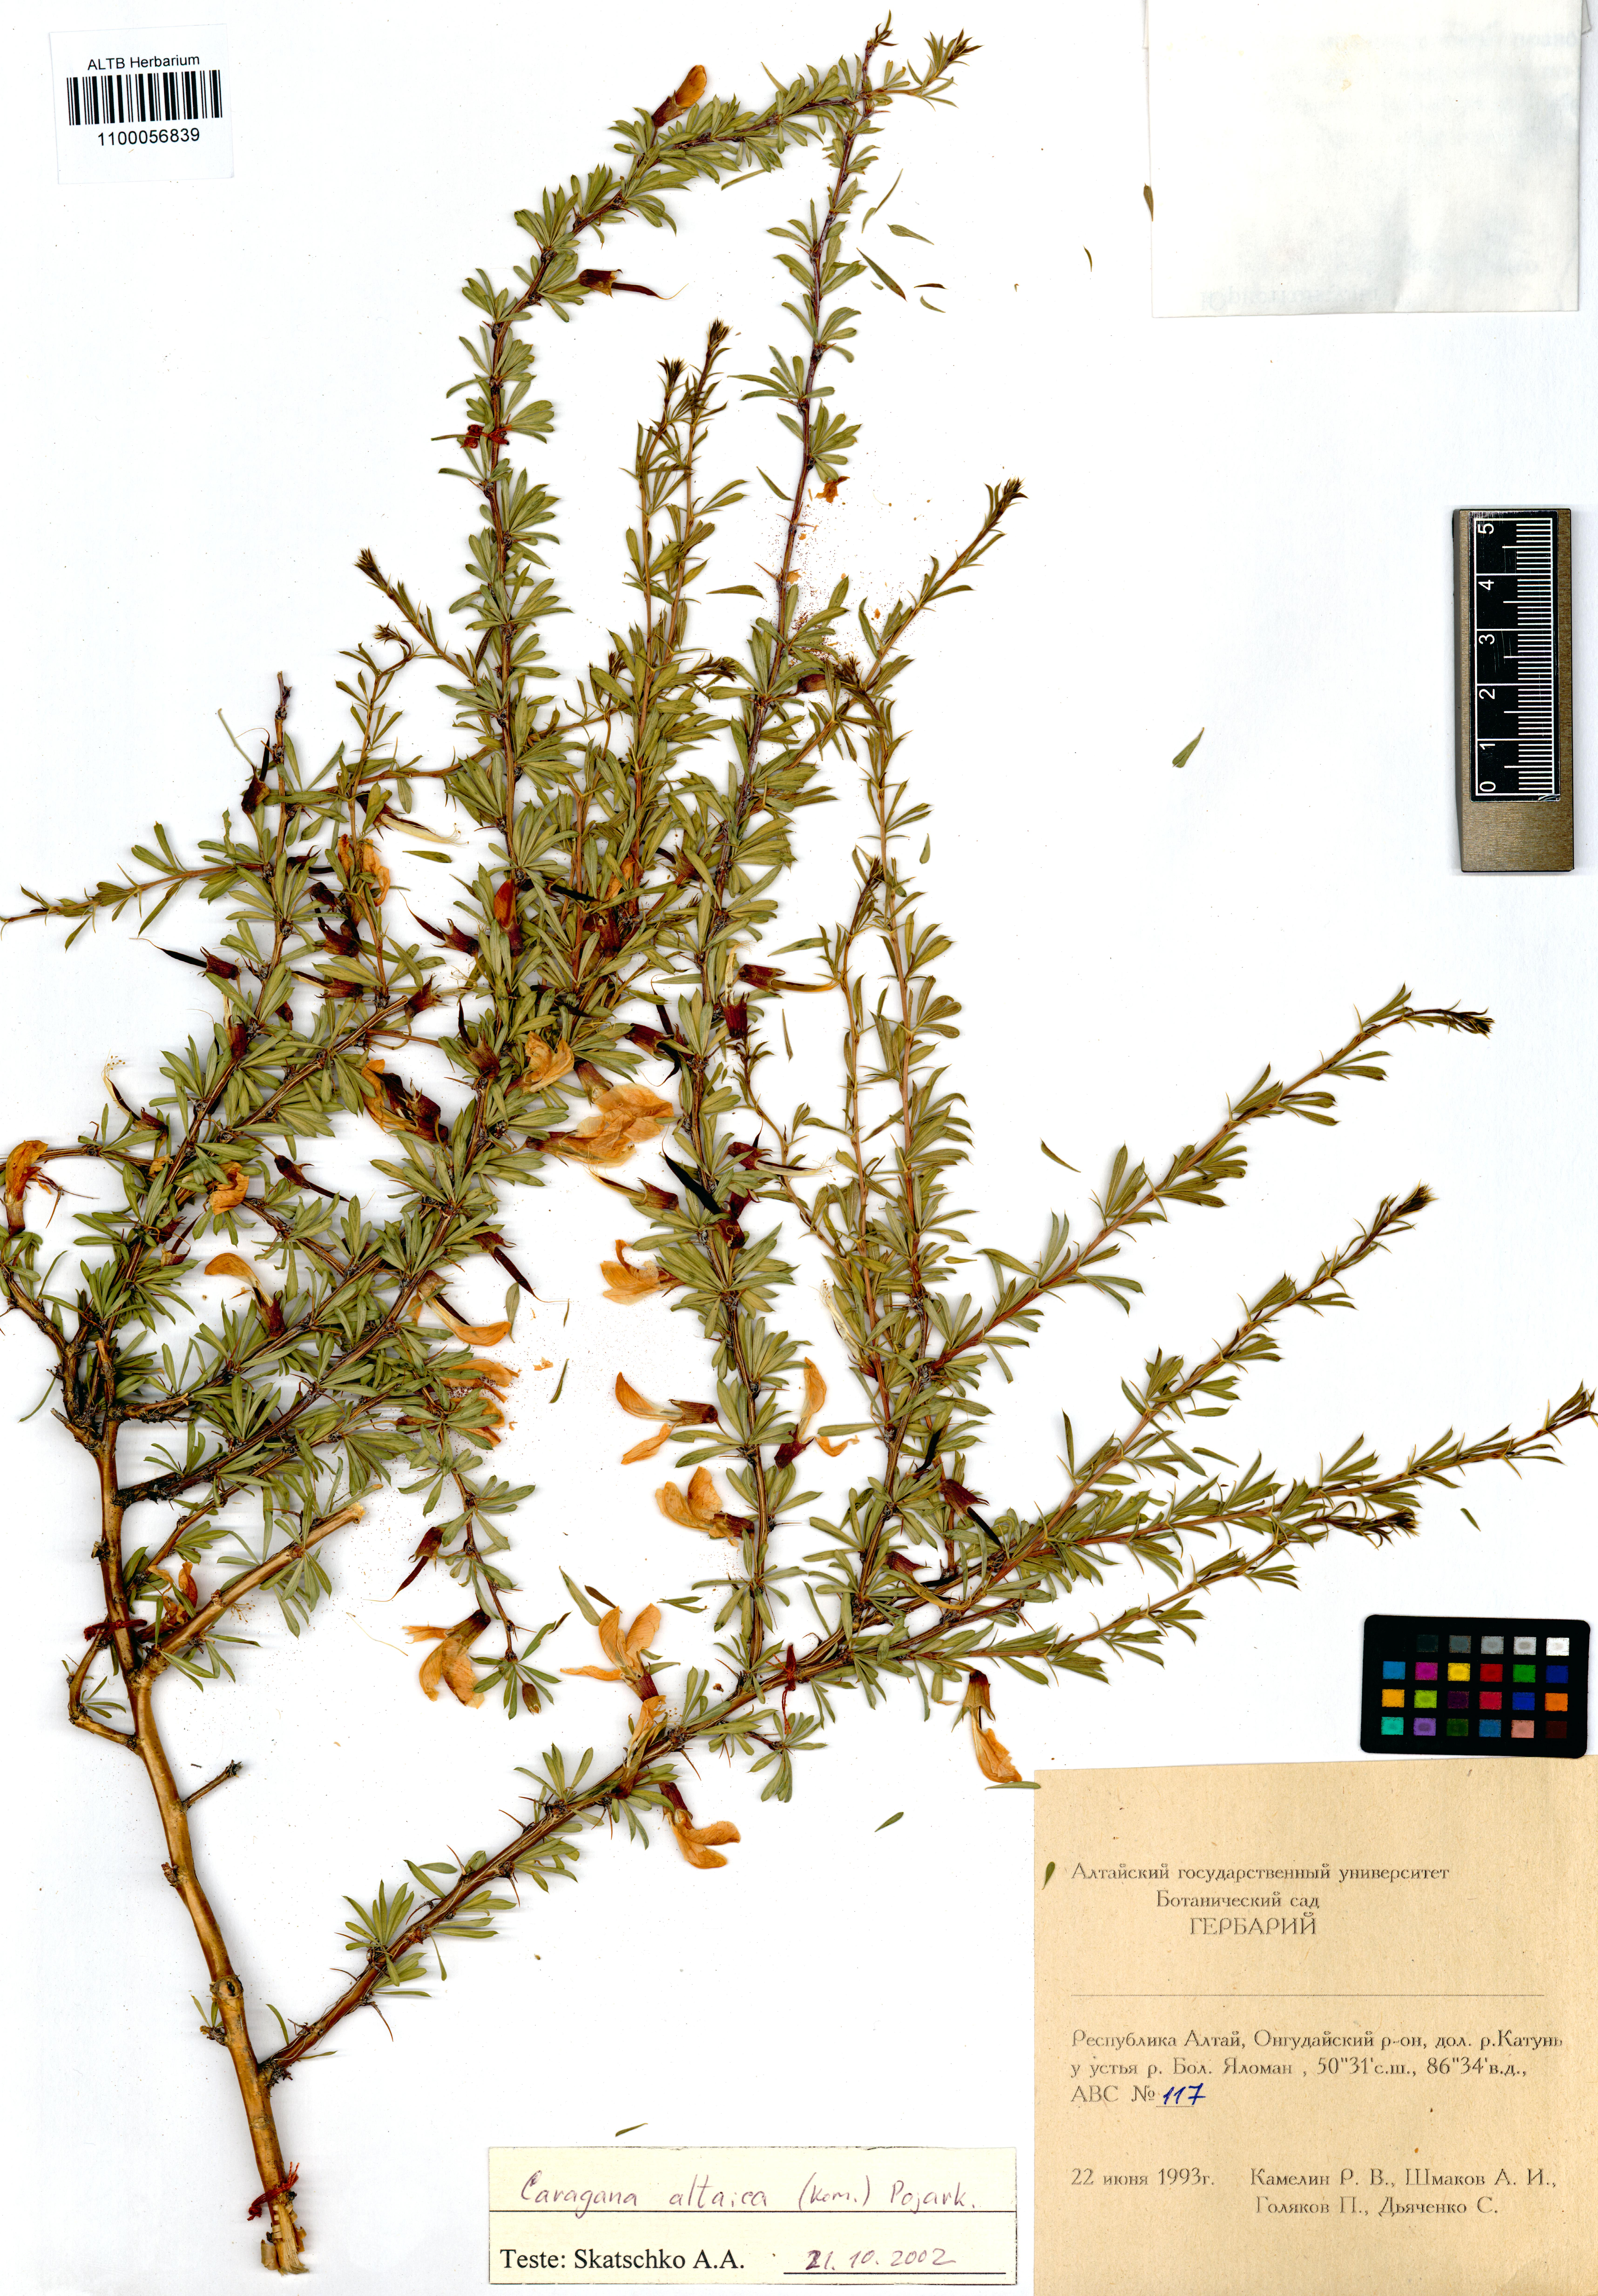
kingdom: Plantae
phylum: Tracheophyta
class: Magnoliopsida
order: Fabales
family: Fabaceae
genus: Caragana
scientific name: Caragana pygmaea
